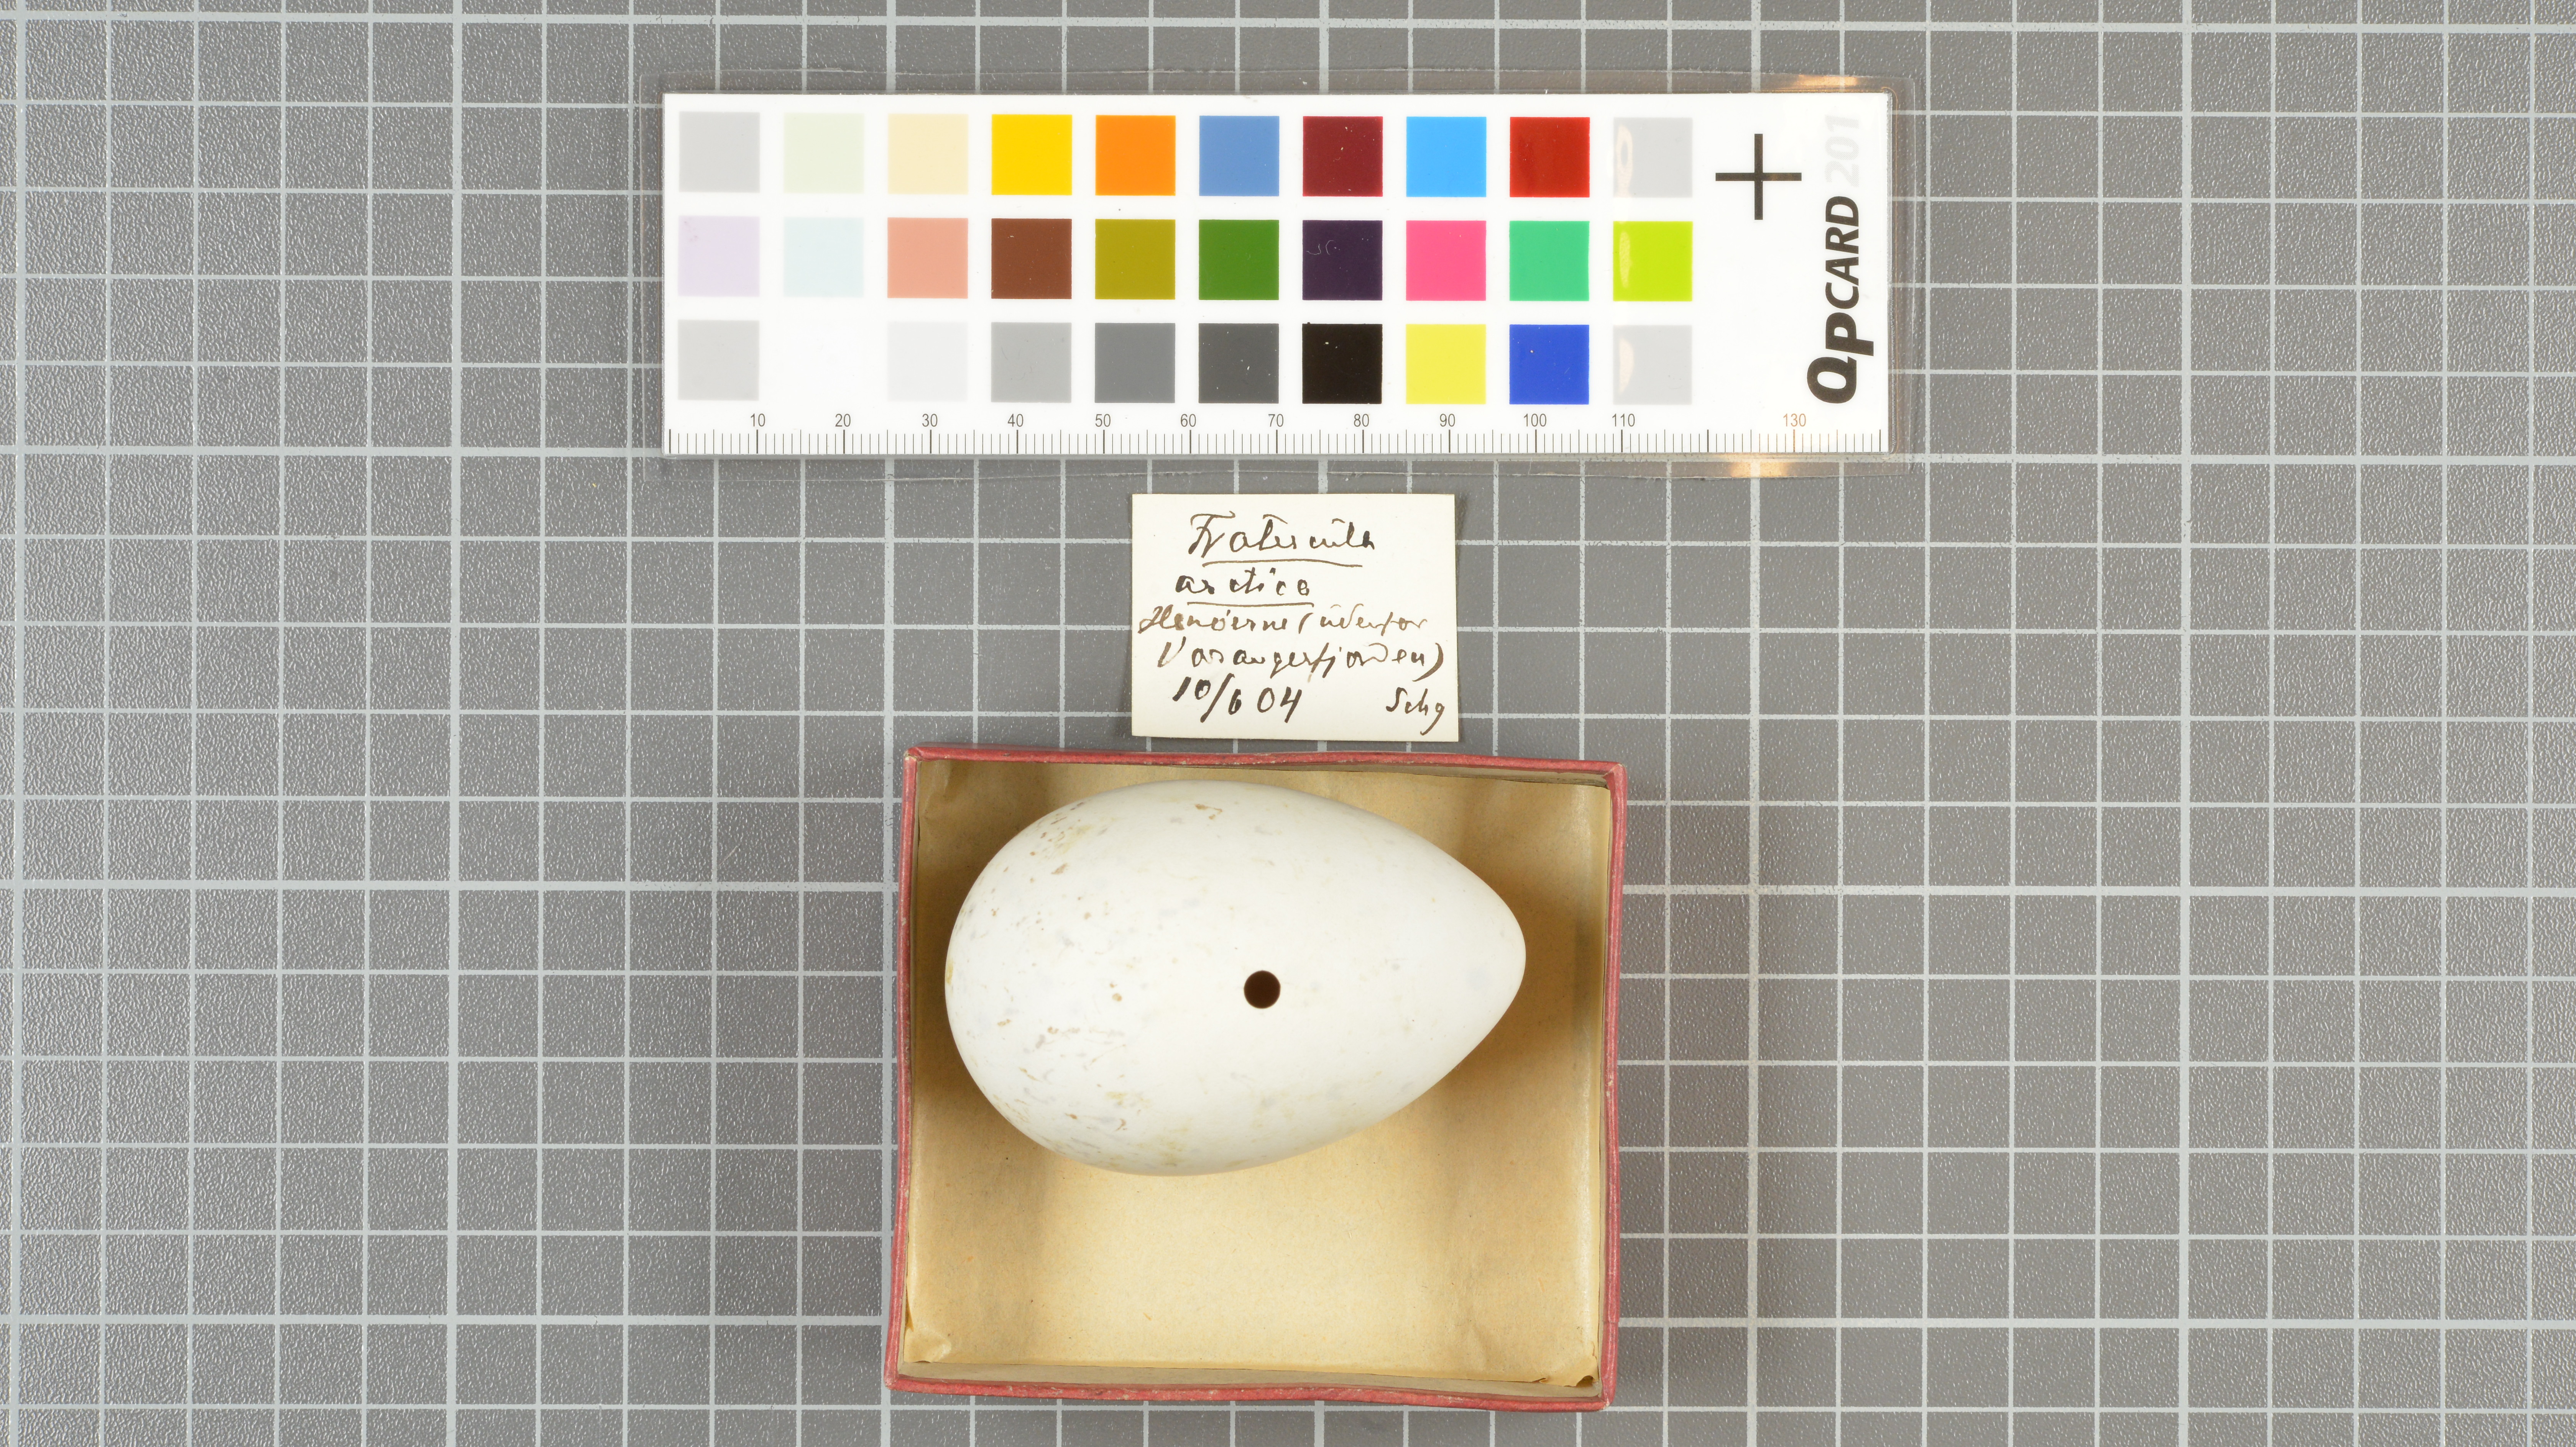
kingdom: Animalia
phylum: Chordata
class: Aves
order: Charadriiformes
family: Alcidae
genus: Fratercula
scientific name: Fratercula arctica
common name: Atlantic puffin
